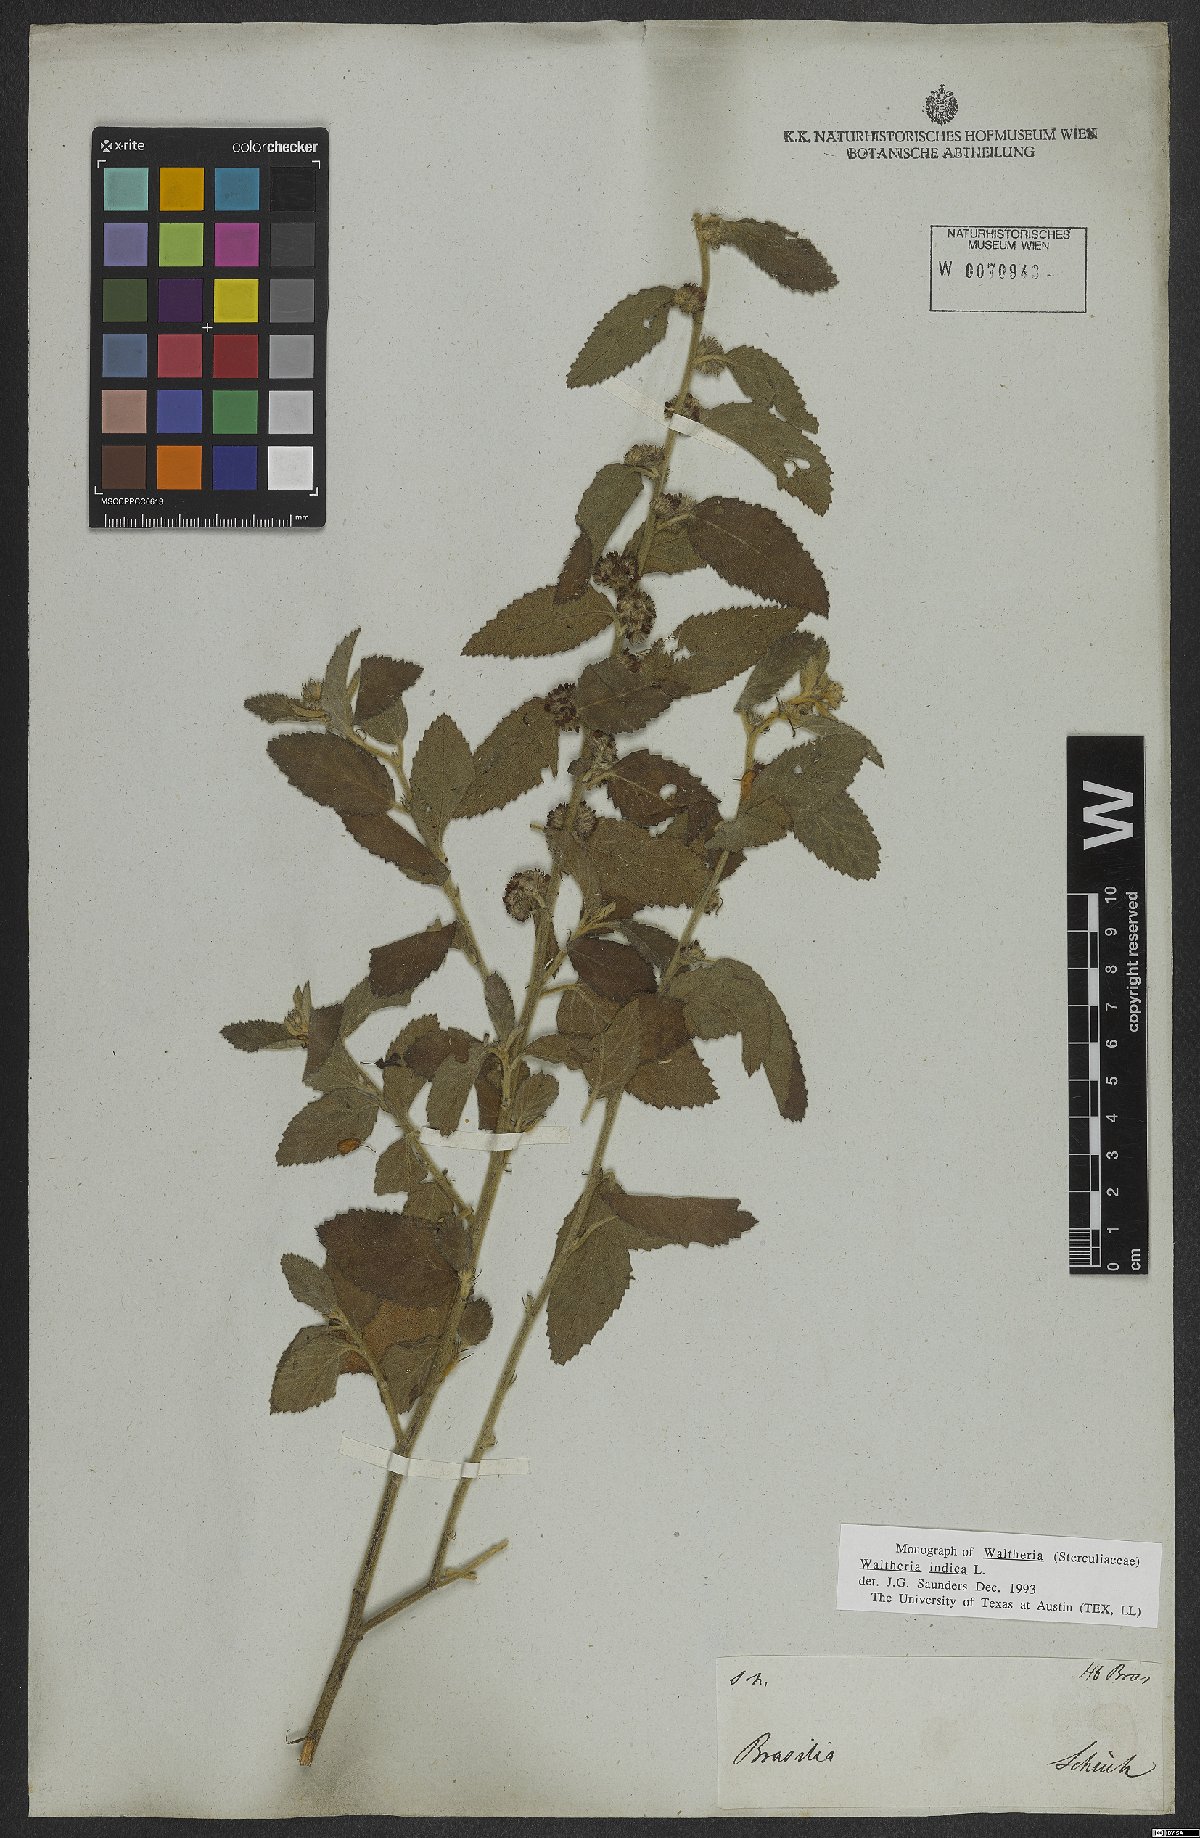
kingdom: Plantae
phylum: Tracheophyta
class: Magnoliopsida
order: Malvales
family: Malvaceae
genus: Waltheria
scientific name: Waltheria indica
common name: Leather-coat
